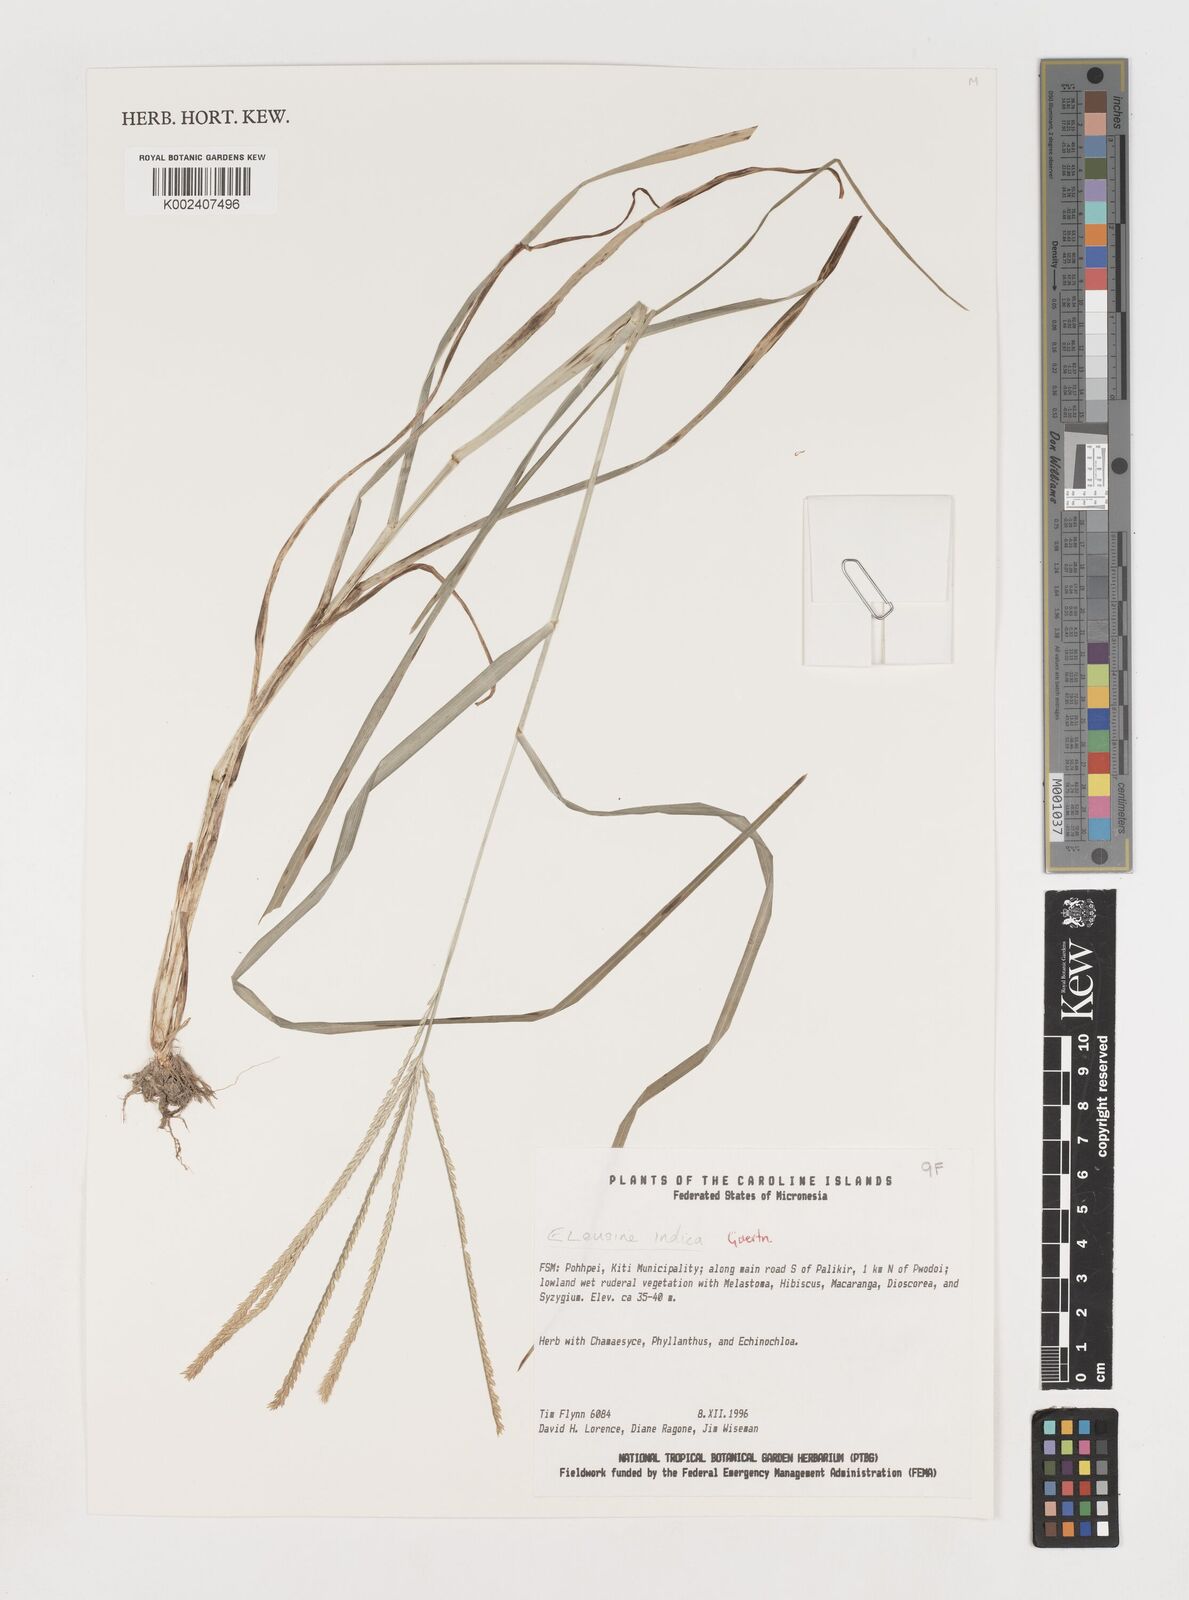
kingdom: Plantae
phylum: Tracheophyta
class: Liliopsida
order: Poales
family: Poaceae
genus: Eleusine
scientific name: Eleusine indica
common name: Yard-grass
